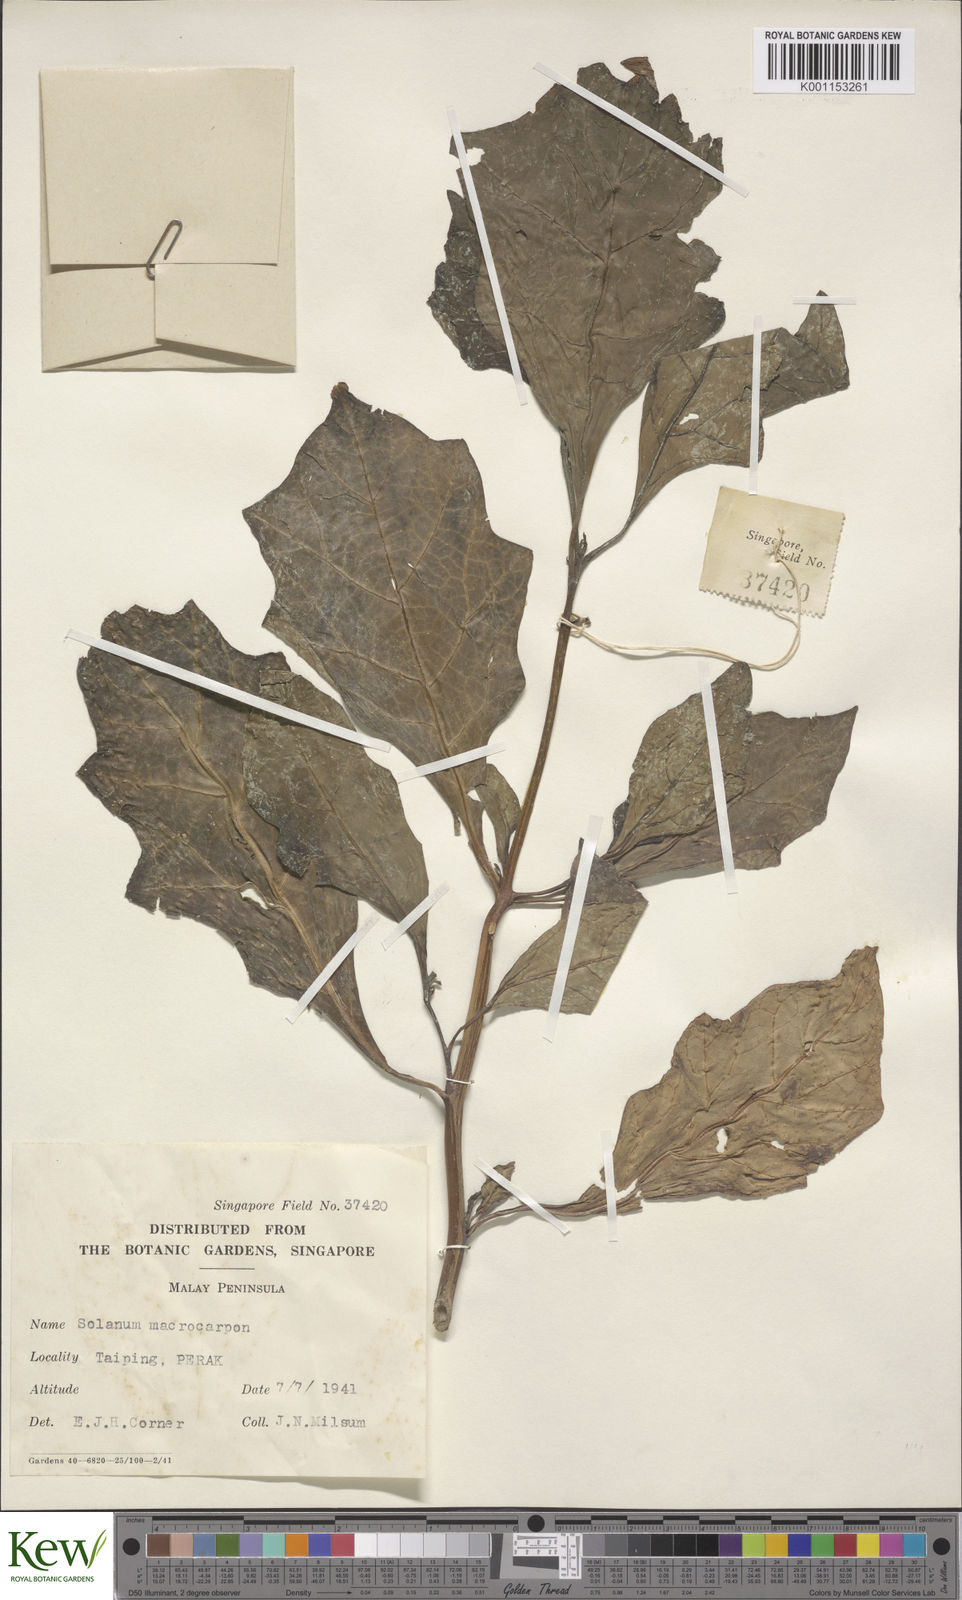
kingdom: Plantae
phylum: Tracheophyta
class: Magnoliopsida
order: Solanales
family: Solanaceae
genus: Solanum
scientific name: Solanum macrocarpon
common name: African eggplant
